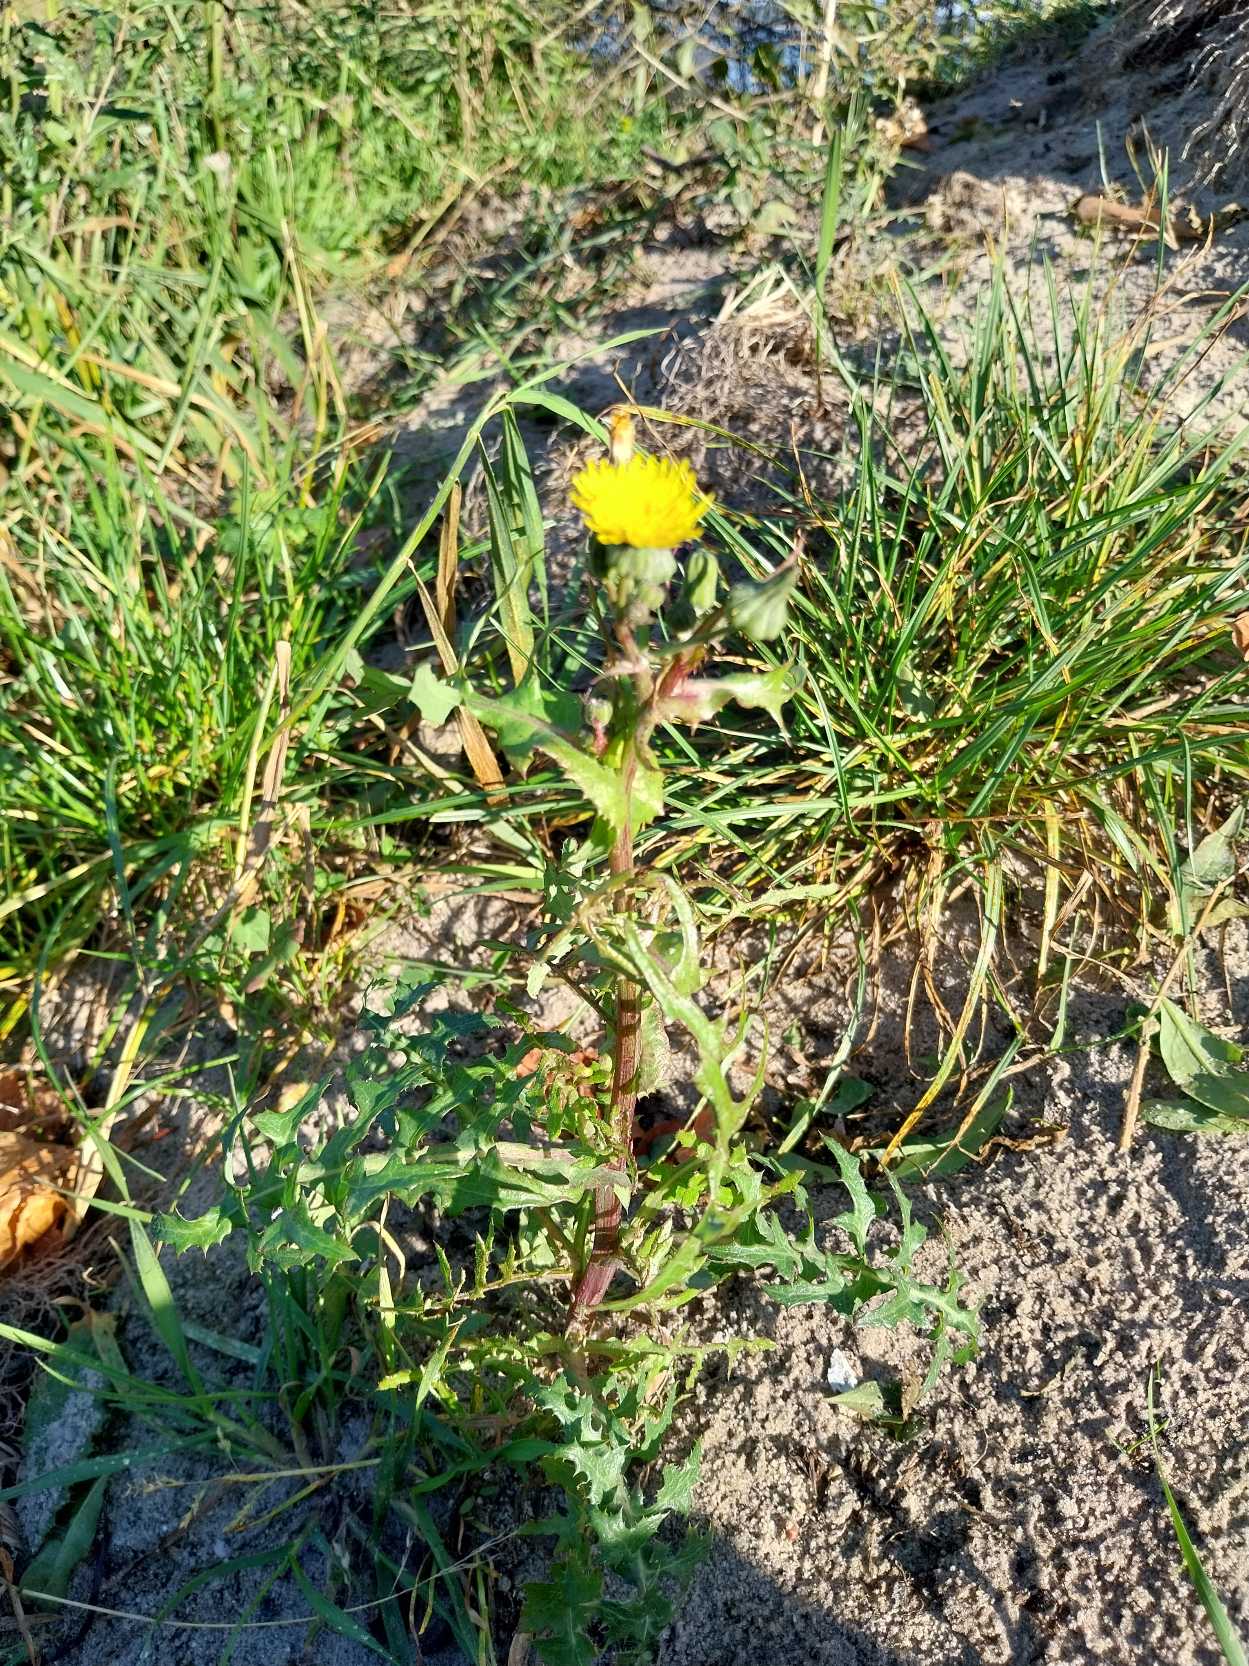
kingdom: Plantae
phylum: Tracheophyta
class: Magnoliopsida
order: Asterales
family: Asteraceae
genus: Sonchus
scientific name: Sonchus oleraceus
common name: Almindelig svinemælk
